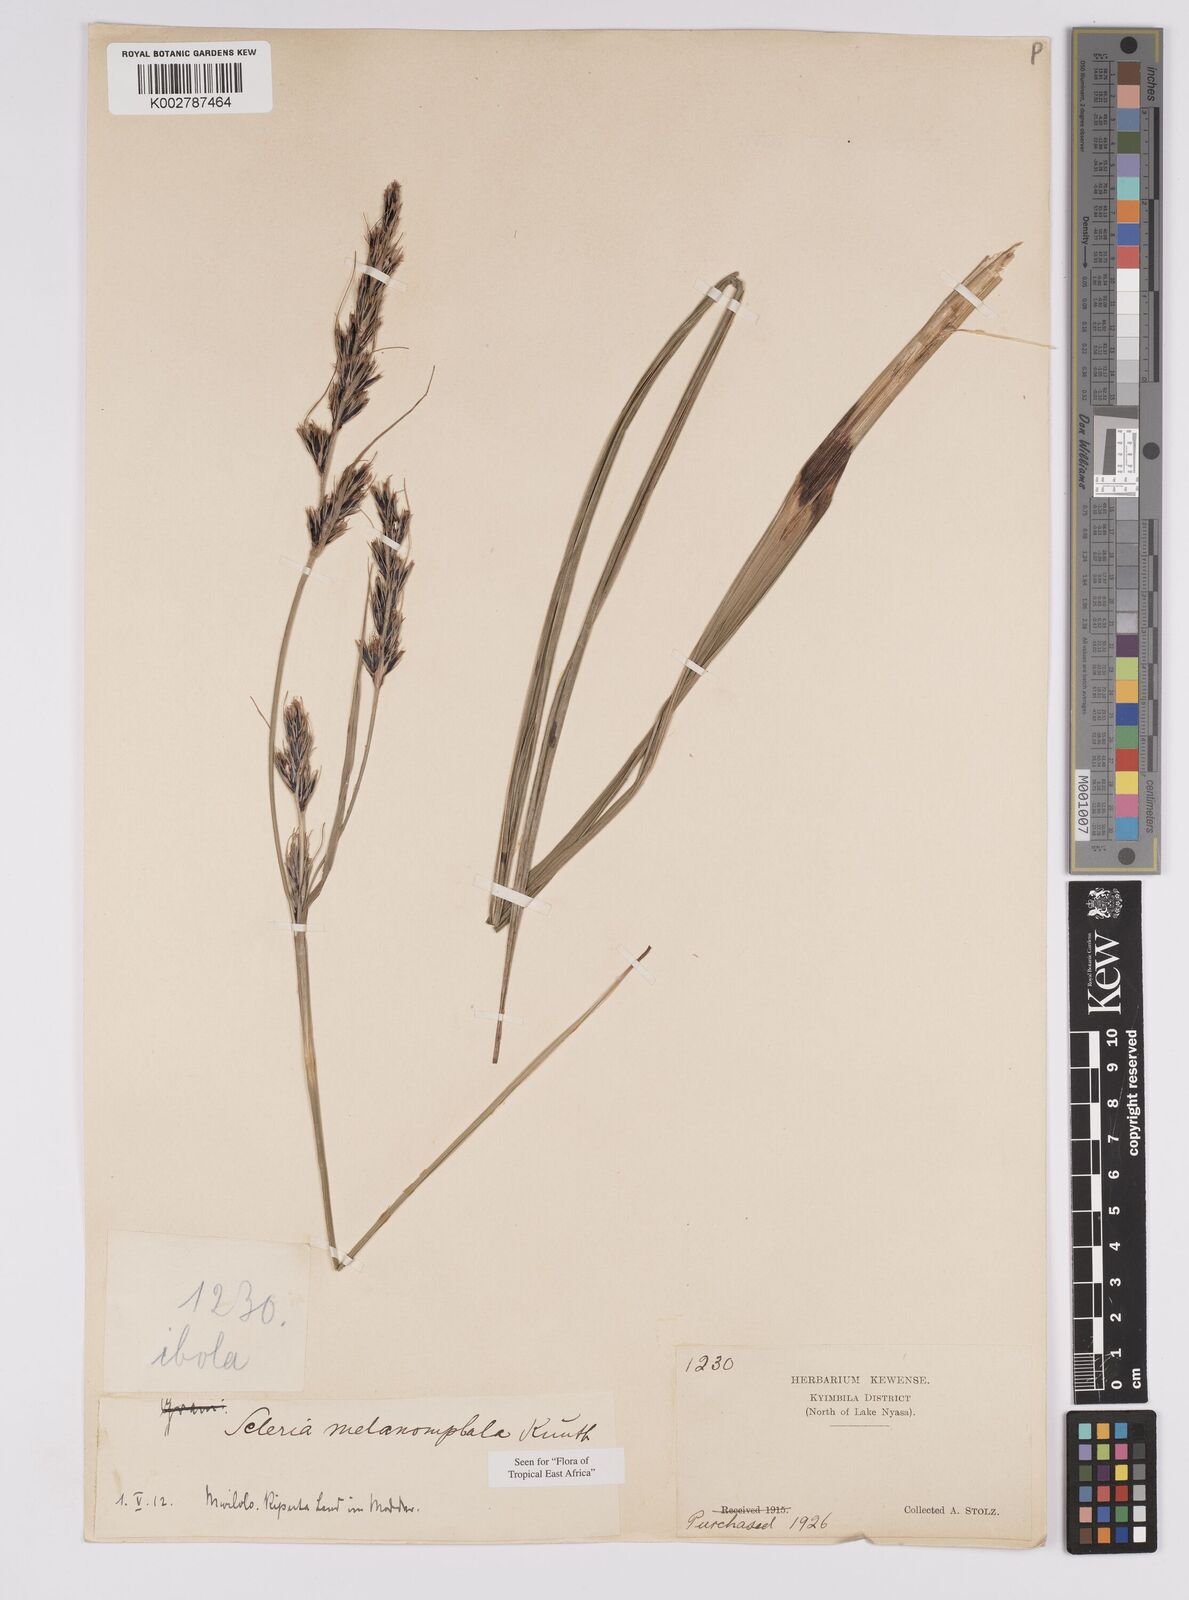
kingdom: Plantae
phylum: Tracheophyta
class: Liliopsida
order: Poales
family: Cyperaceae
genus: Scleria
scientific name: Scleria melanomphala
